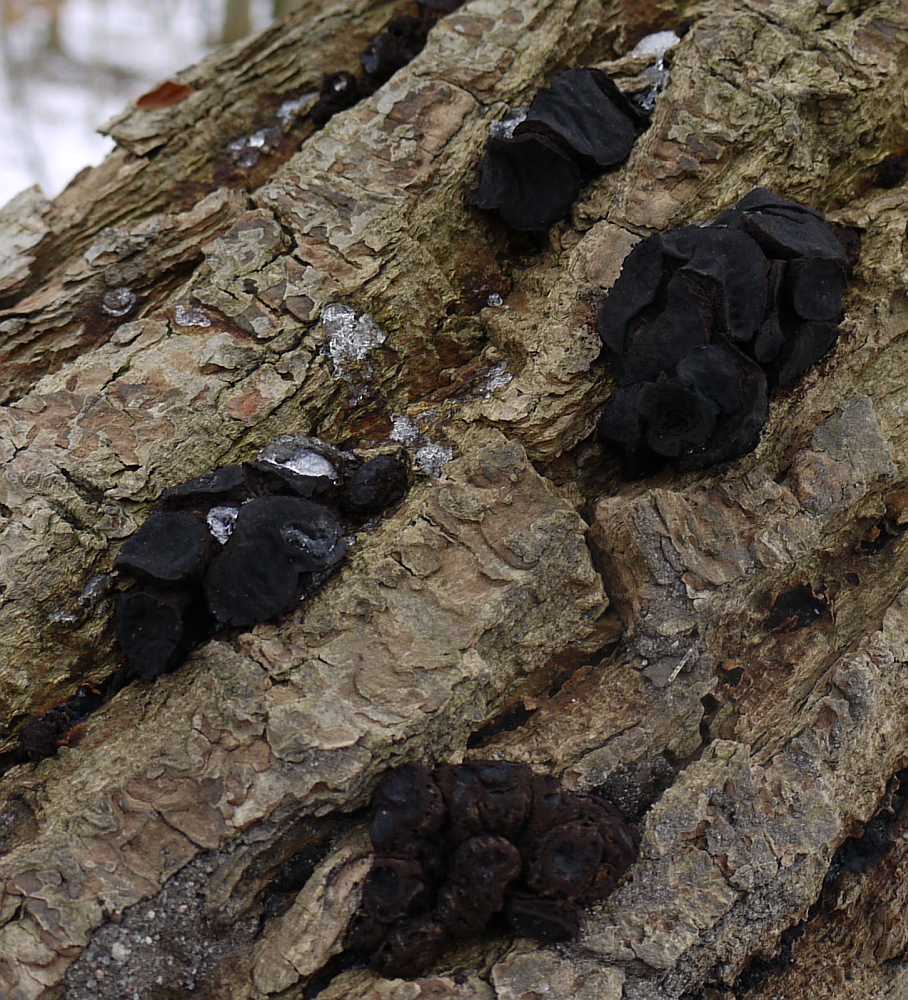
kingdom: Fungi
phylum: Ascomycota
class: Leotiomycetes
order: Phacidiales
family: Phacidiaceae
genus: Bulgaria
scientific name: Bulgaria inquinans
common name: afsmittende topsvamp
